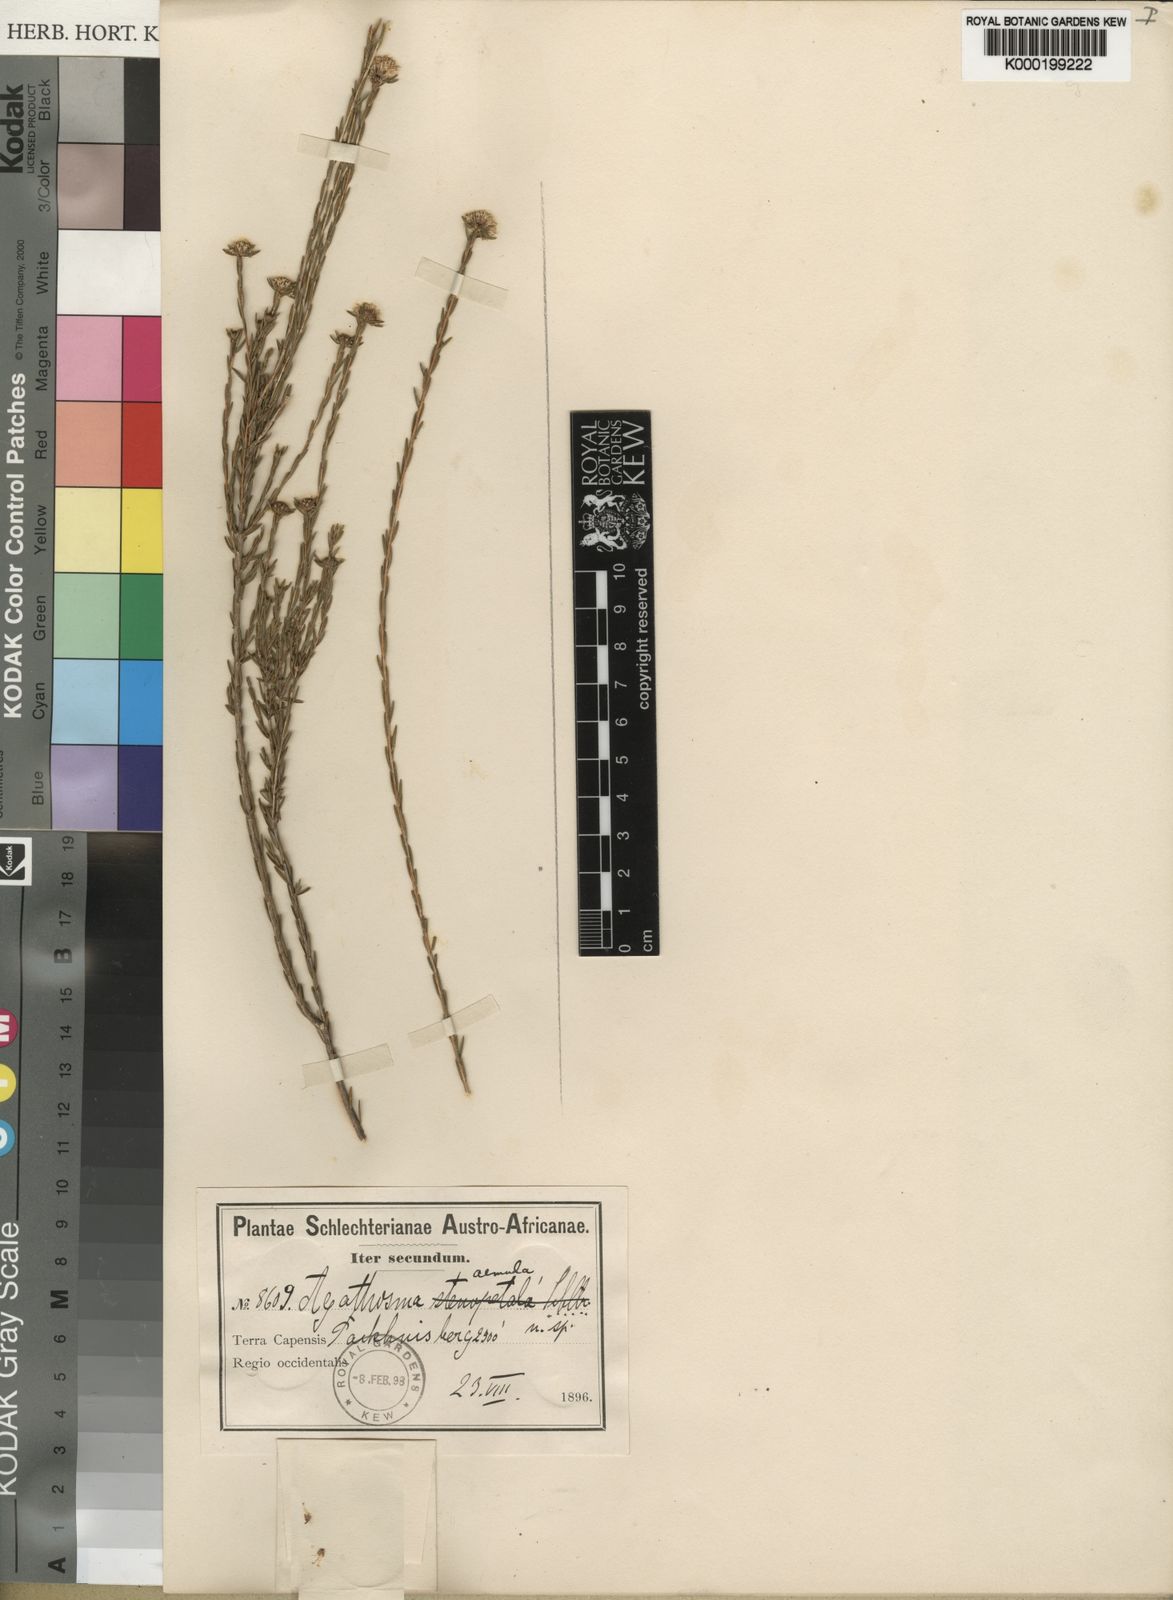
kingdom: Plantae
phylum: Tracheophyta
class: Magnoliopsida
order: Sapindales
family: Rutaceae
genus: Agathosma
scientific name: Agathosma aemula
